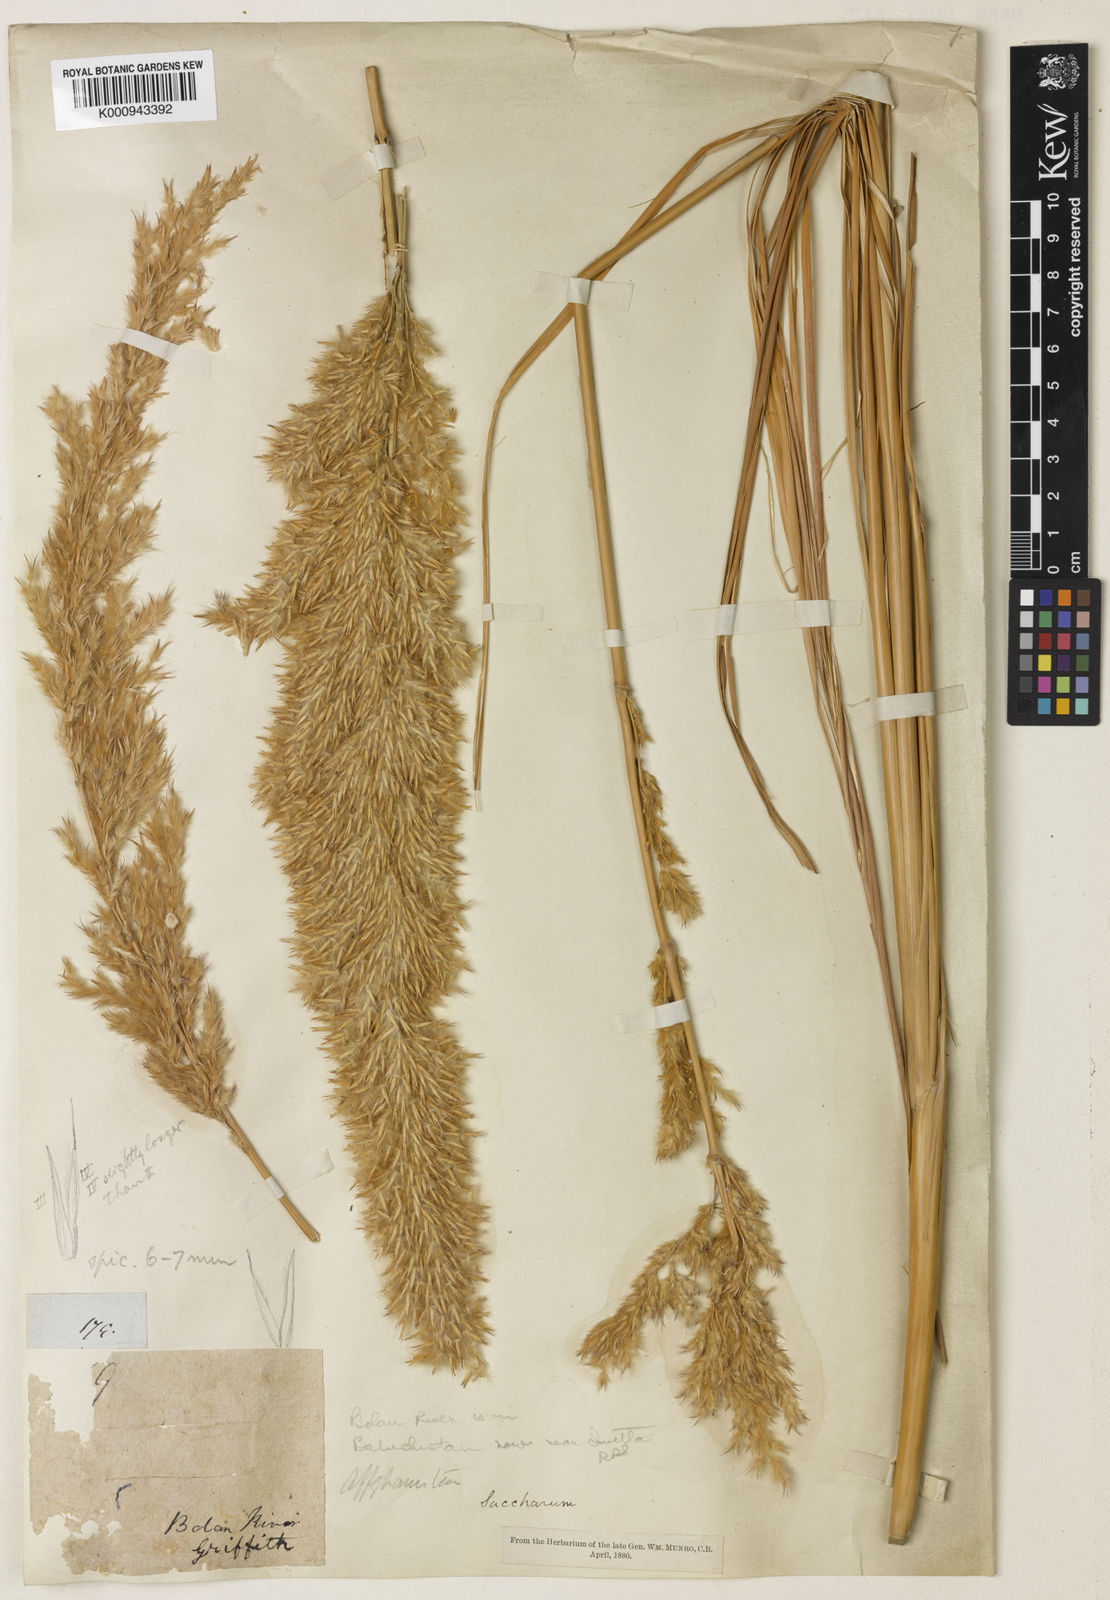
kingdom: Plantae
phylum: Tracheophyta
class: Liliopsida
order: Poales
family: Poaceae
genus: Saccharum
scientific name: Saccharum griffithii
